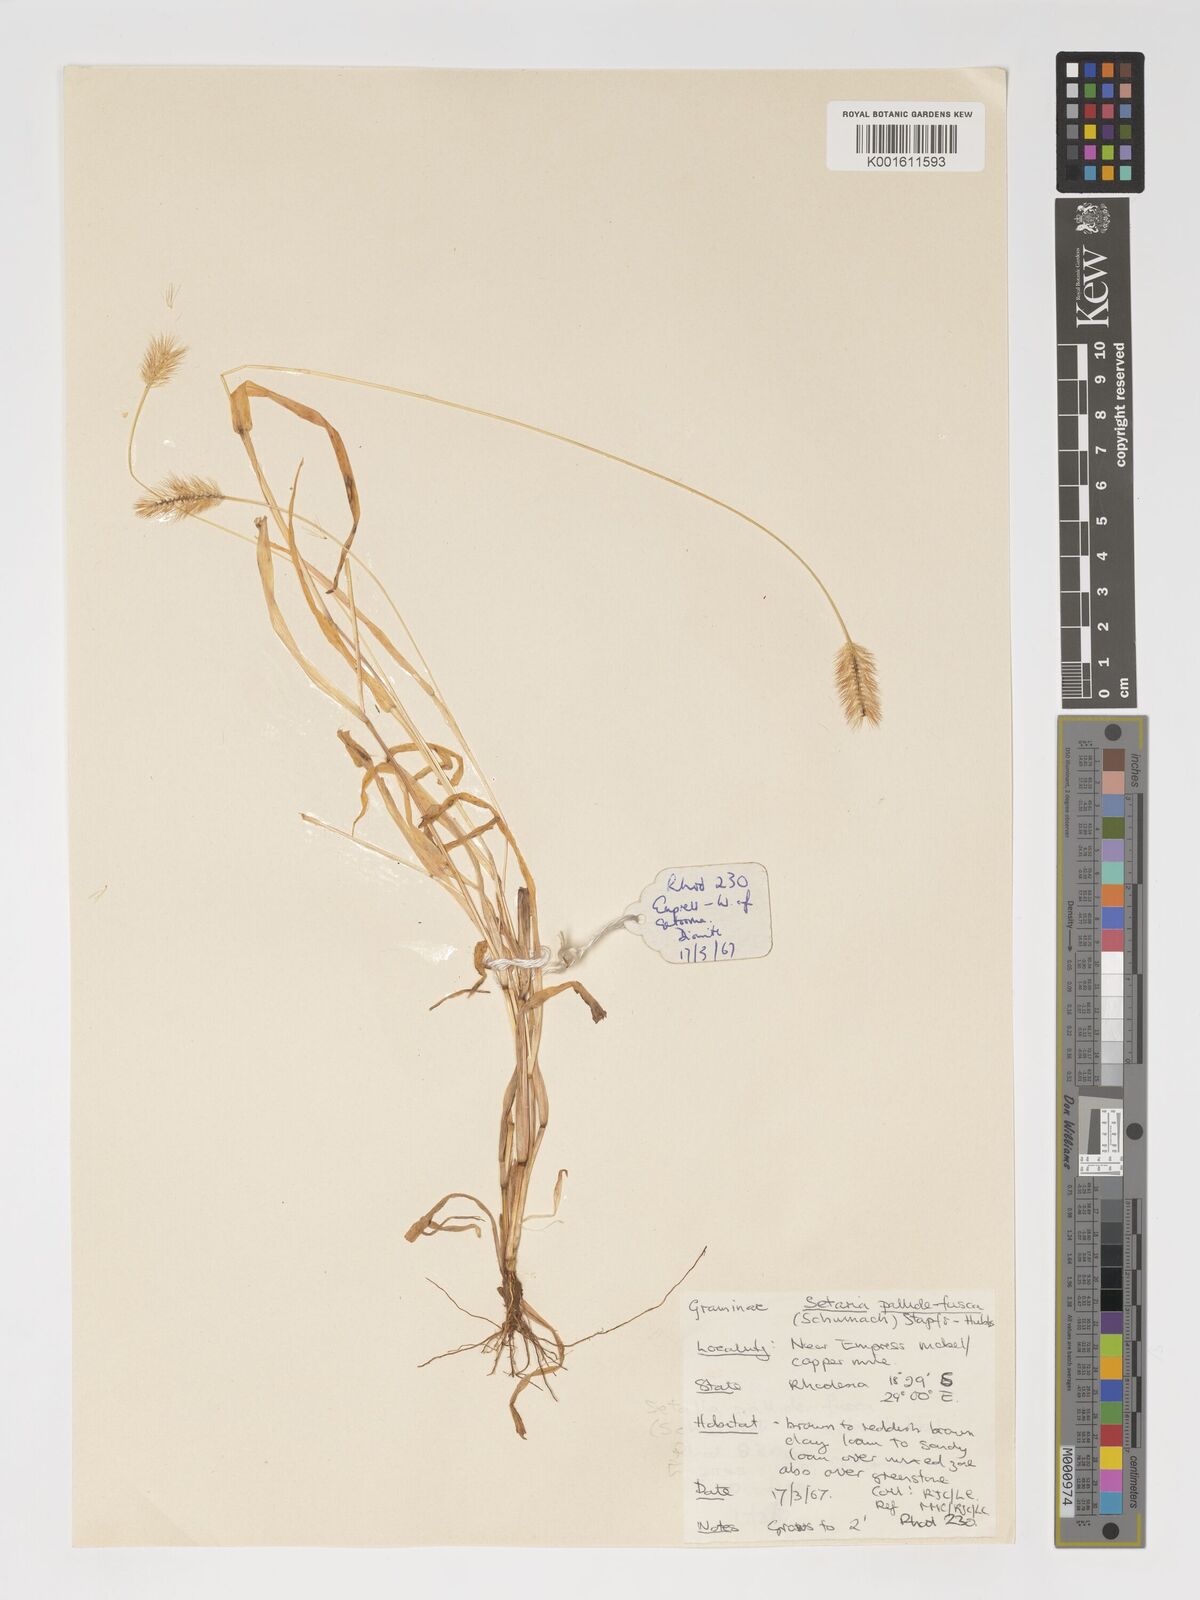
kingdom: Plantae
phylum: Tracheophyta
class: Liliopsida
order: Poales
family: Poaceae
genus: Setaria
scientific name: Setaria pumila
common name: Yellow bristle-grass
